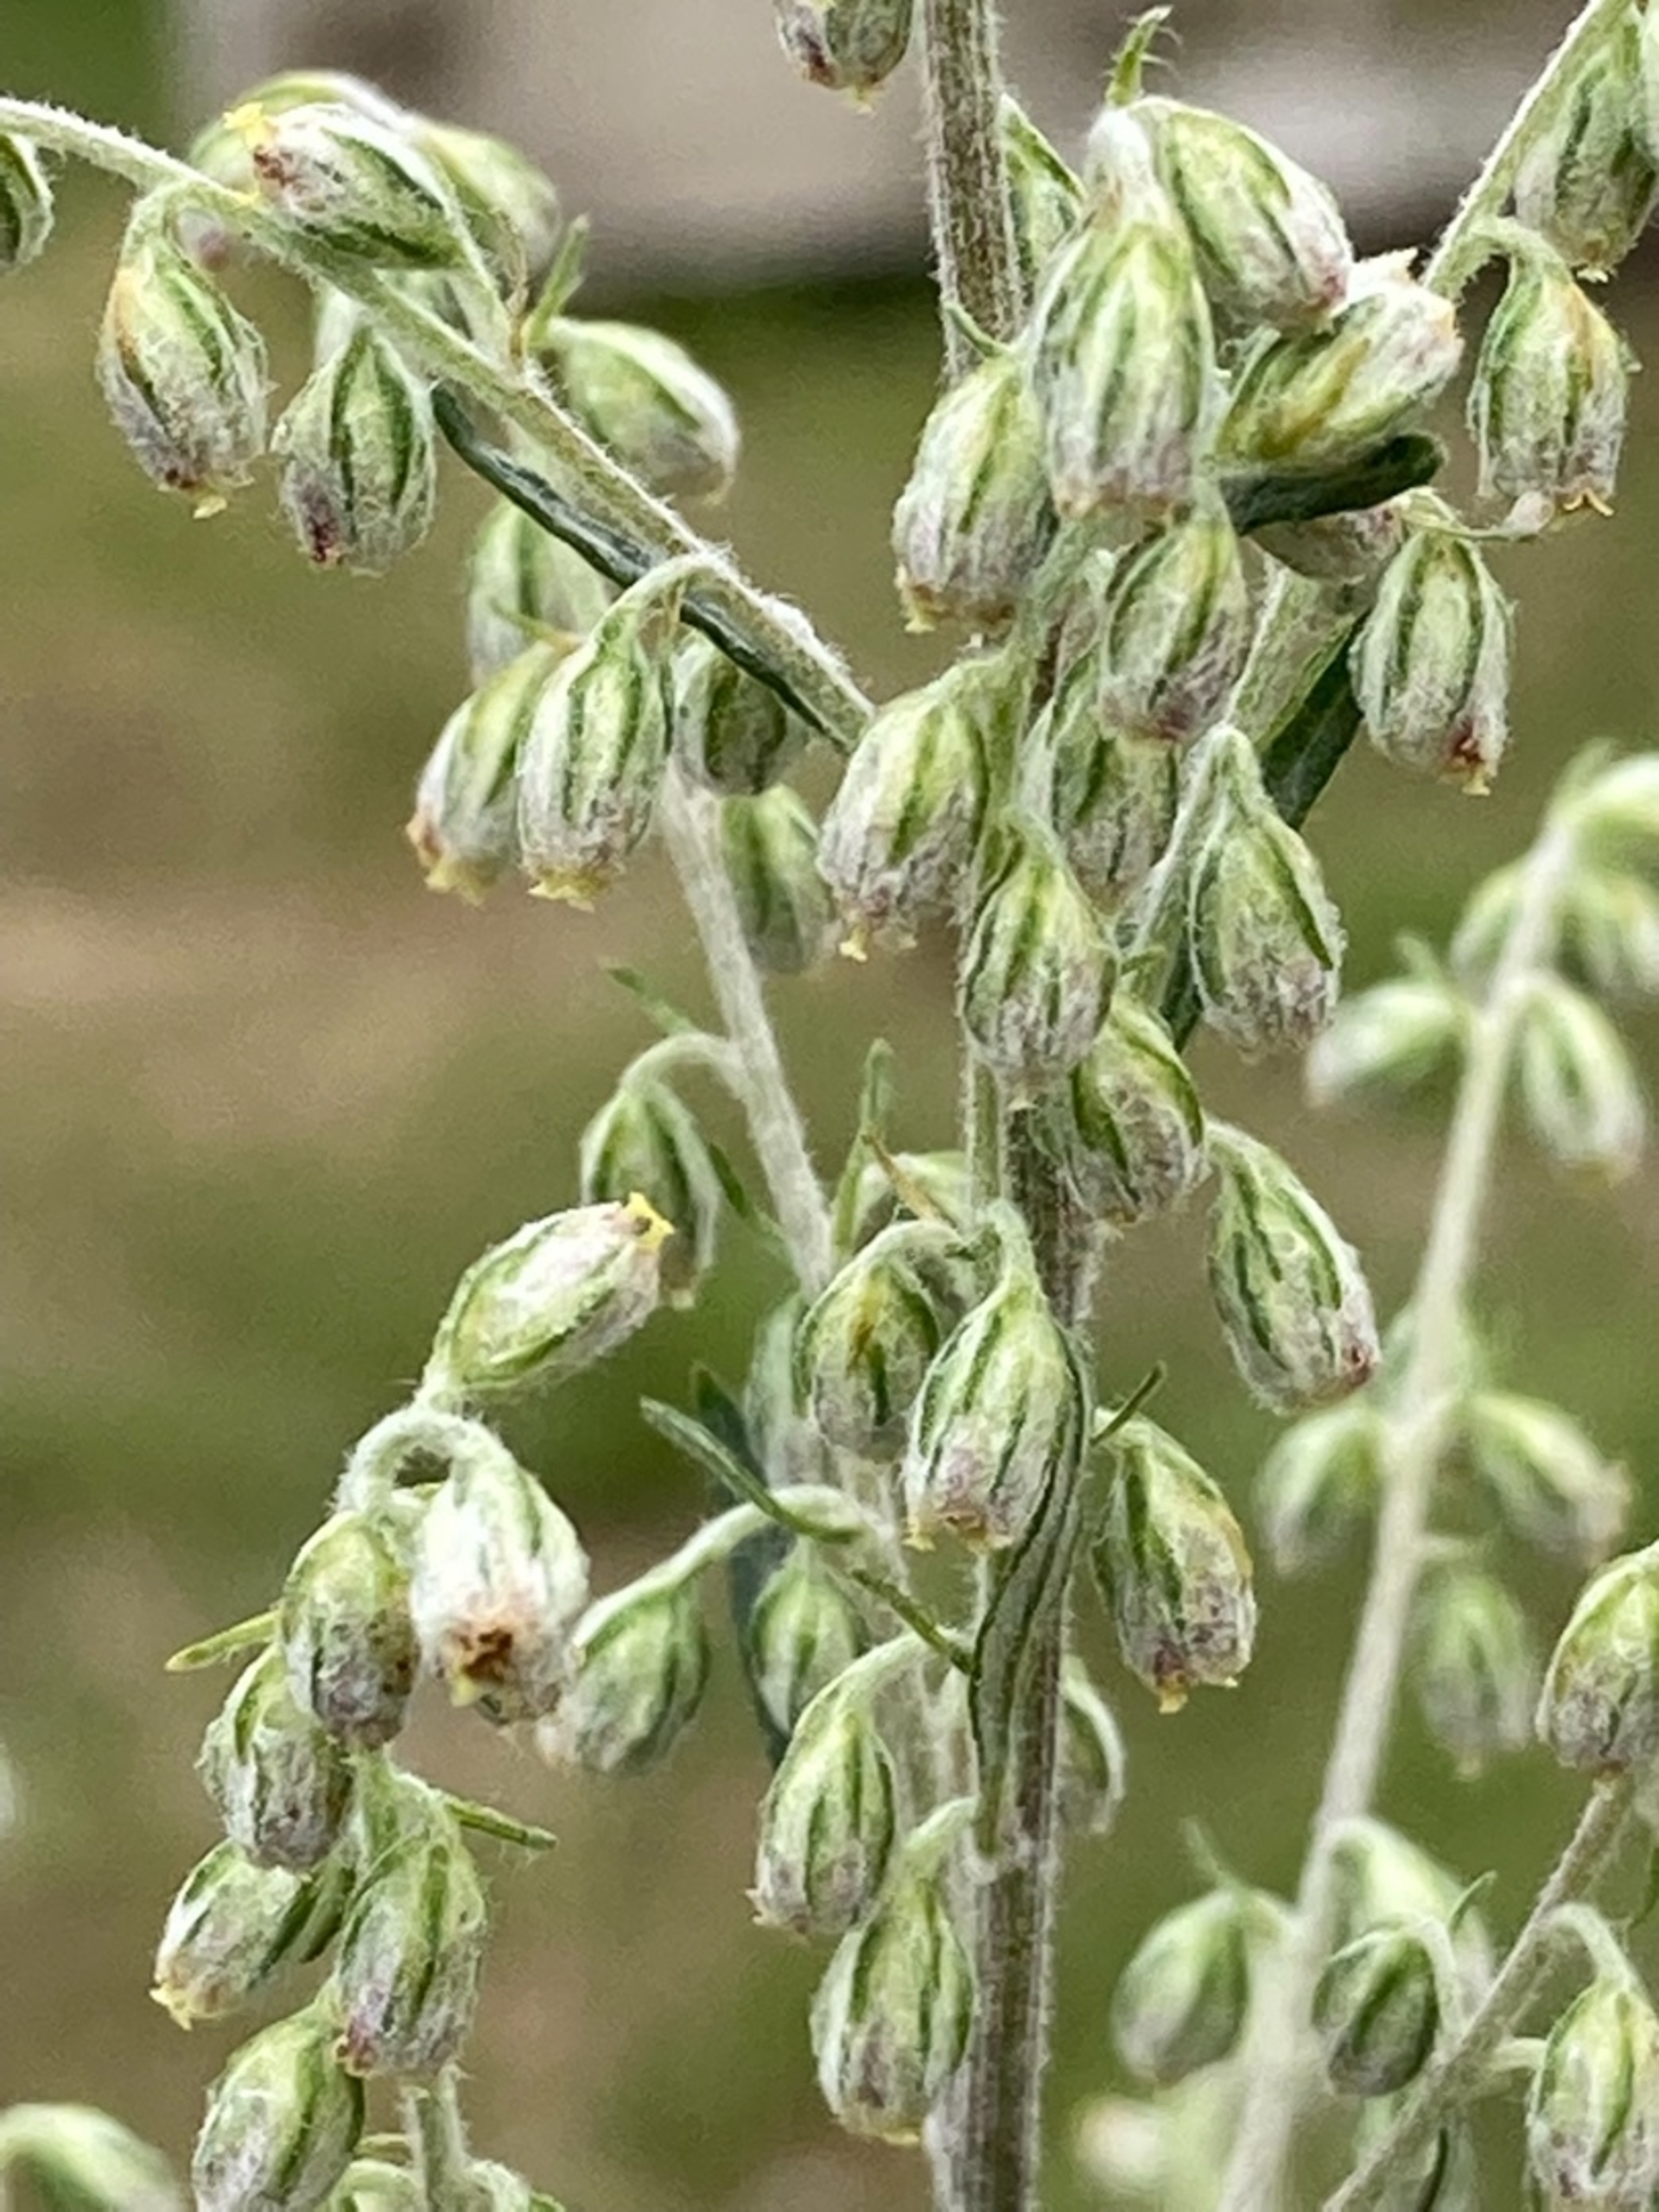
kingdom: Plantae
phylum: Tracheophyta
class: Magnoliopsida
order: Asterales
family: Asteraceae
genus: Artemisia
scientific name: Artemisia campestris
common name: Mark-bynke
